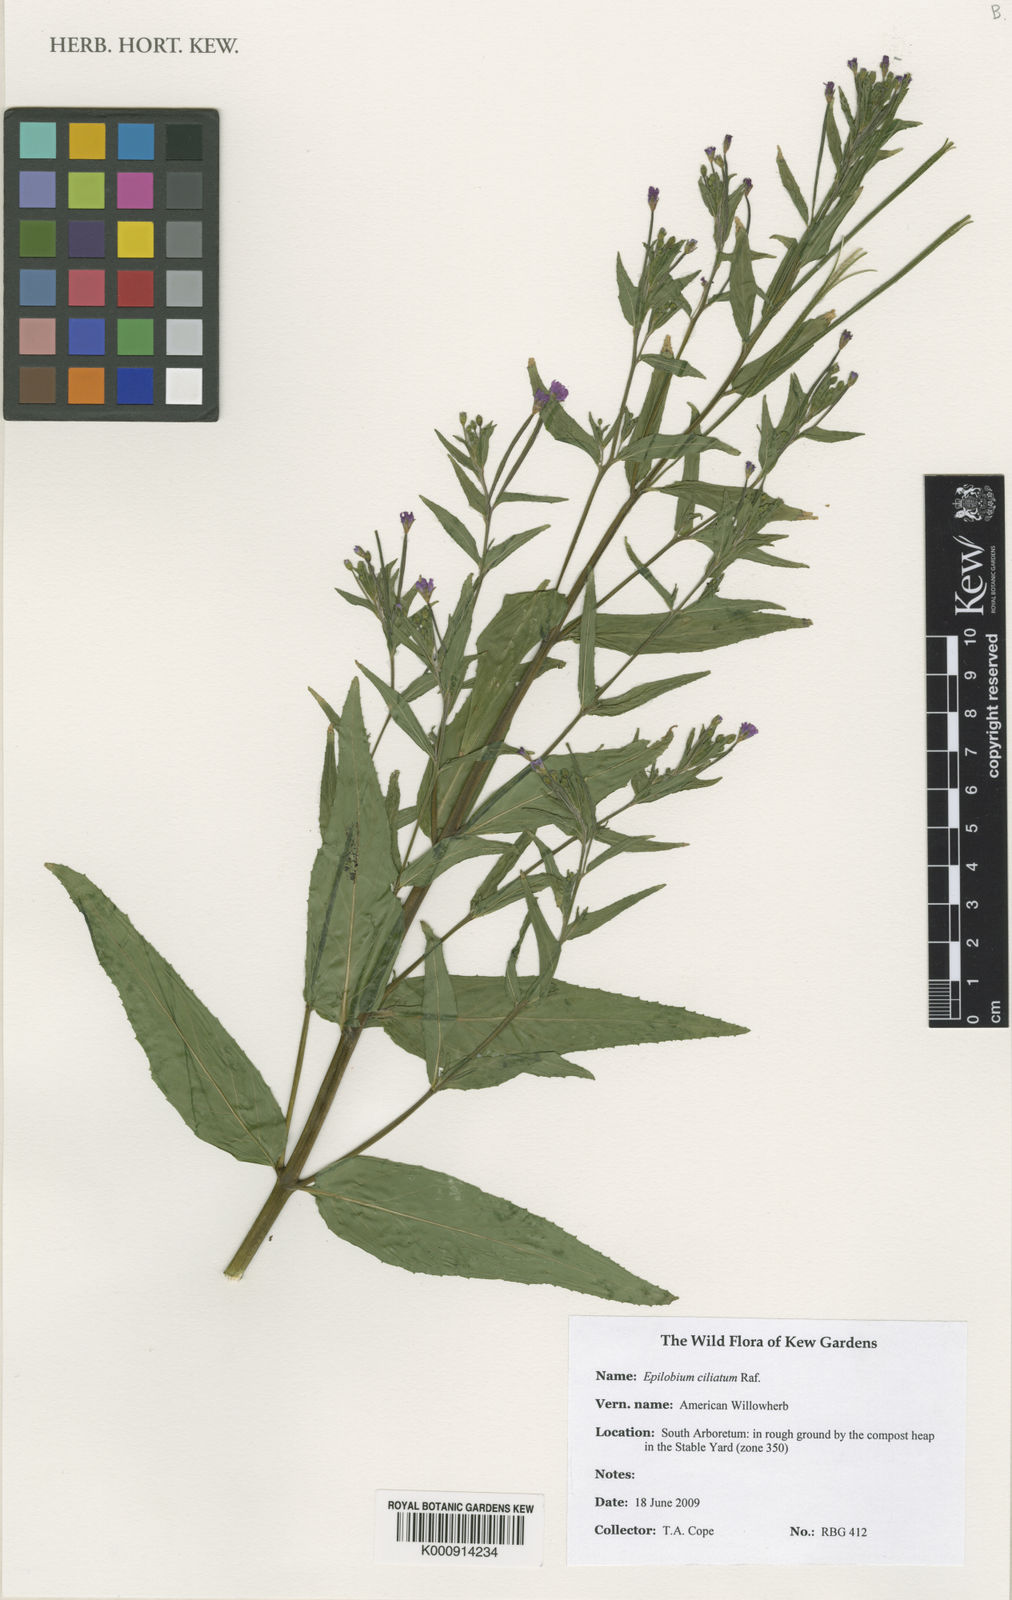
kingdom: Plantae
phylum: Tracheophyta
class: Magnoliopsida
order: Myrtales
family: Onagraceae
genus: Epilobium
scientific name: Epilobium ciliatum
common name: American willowherb
